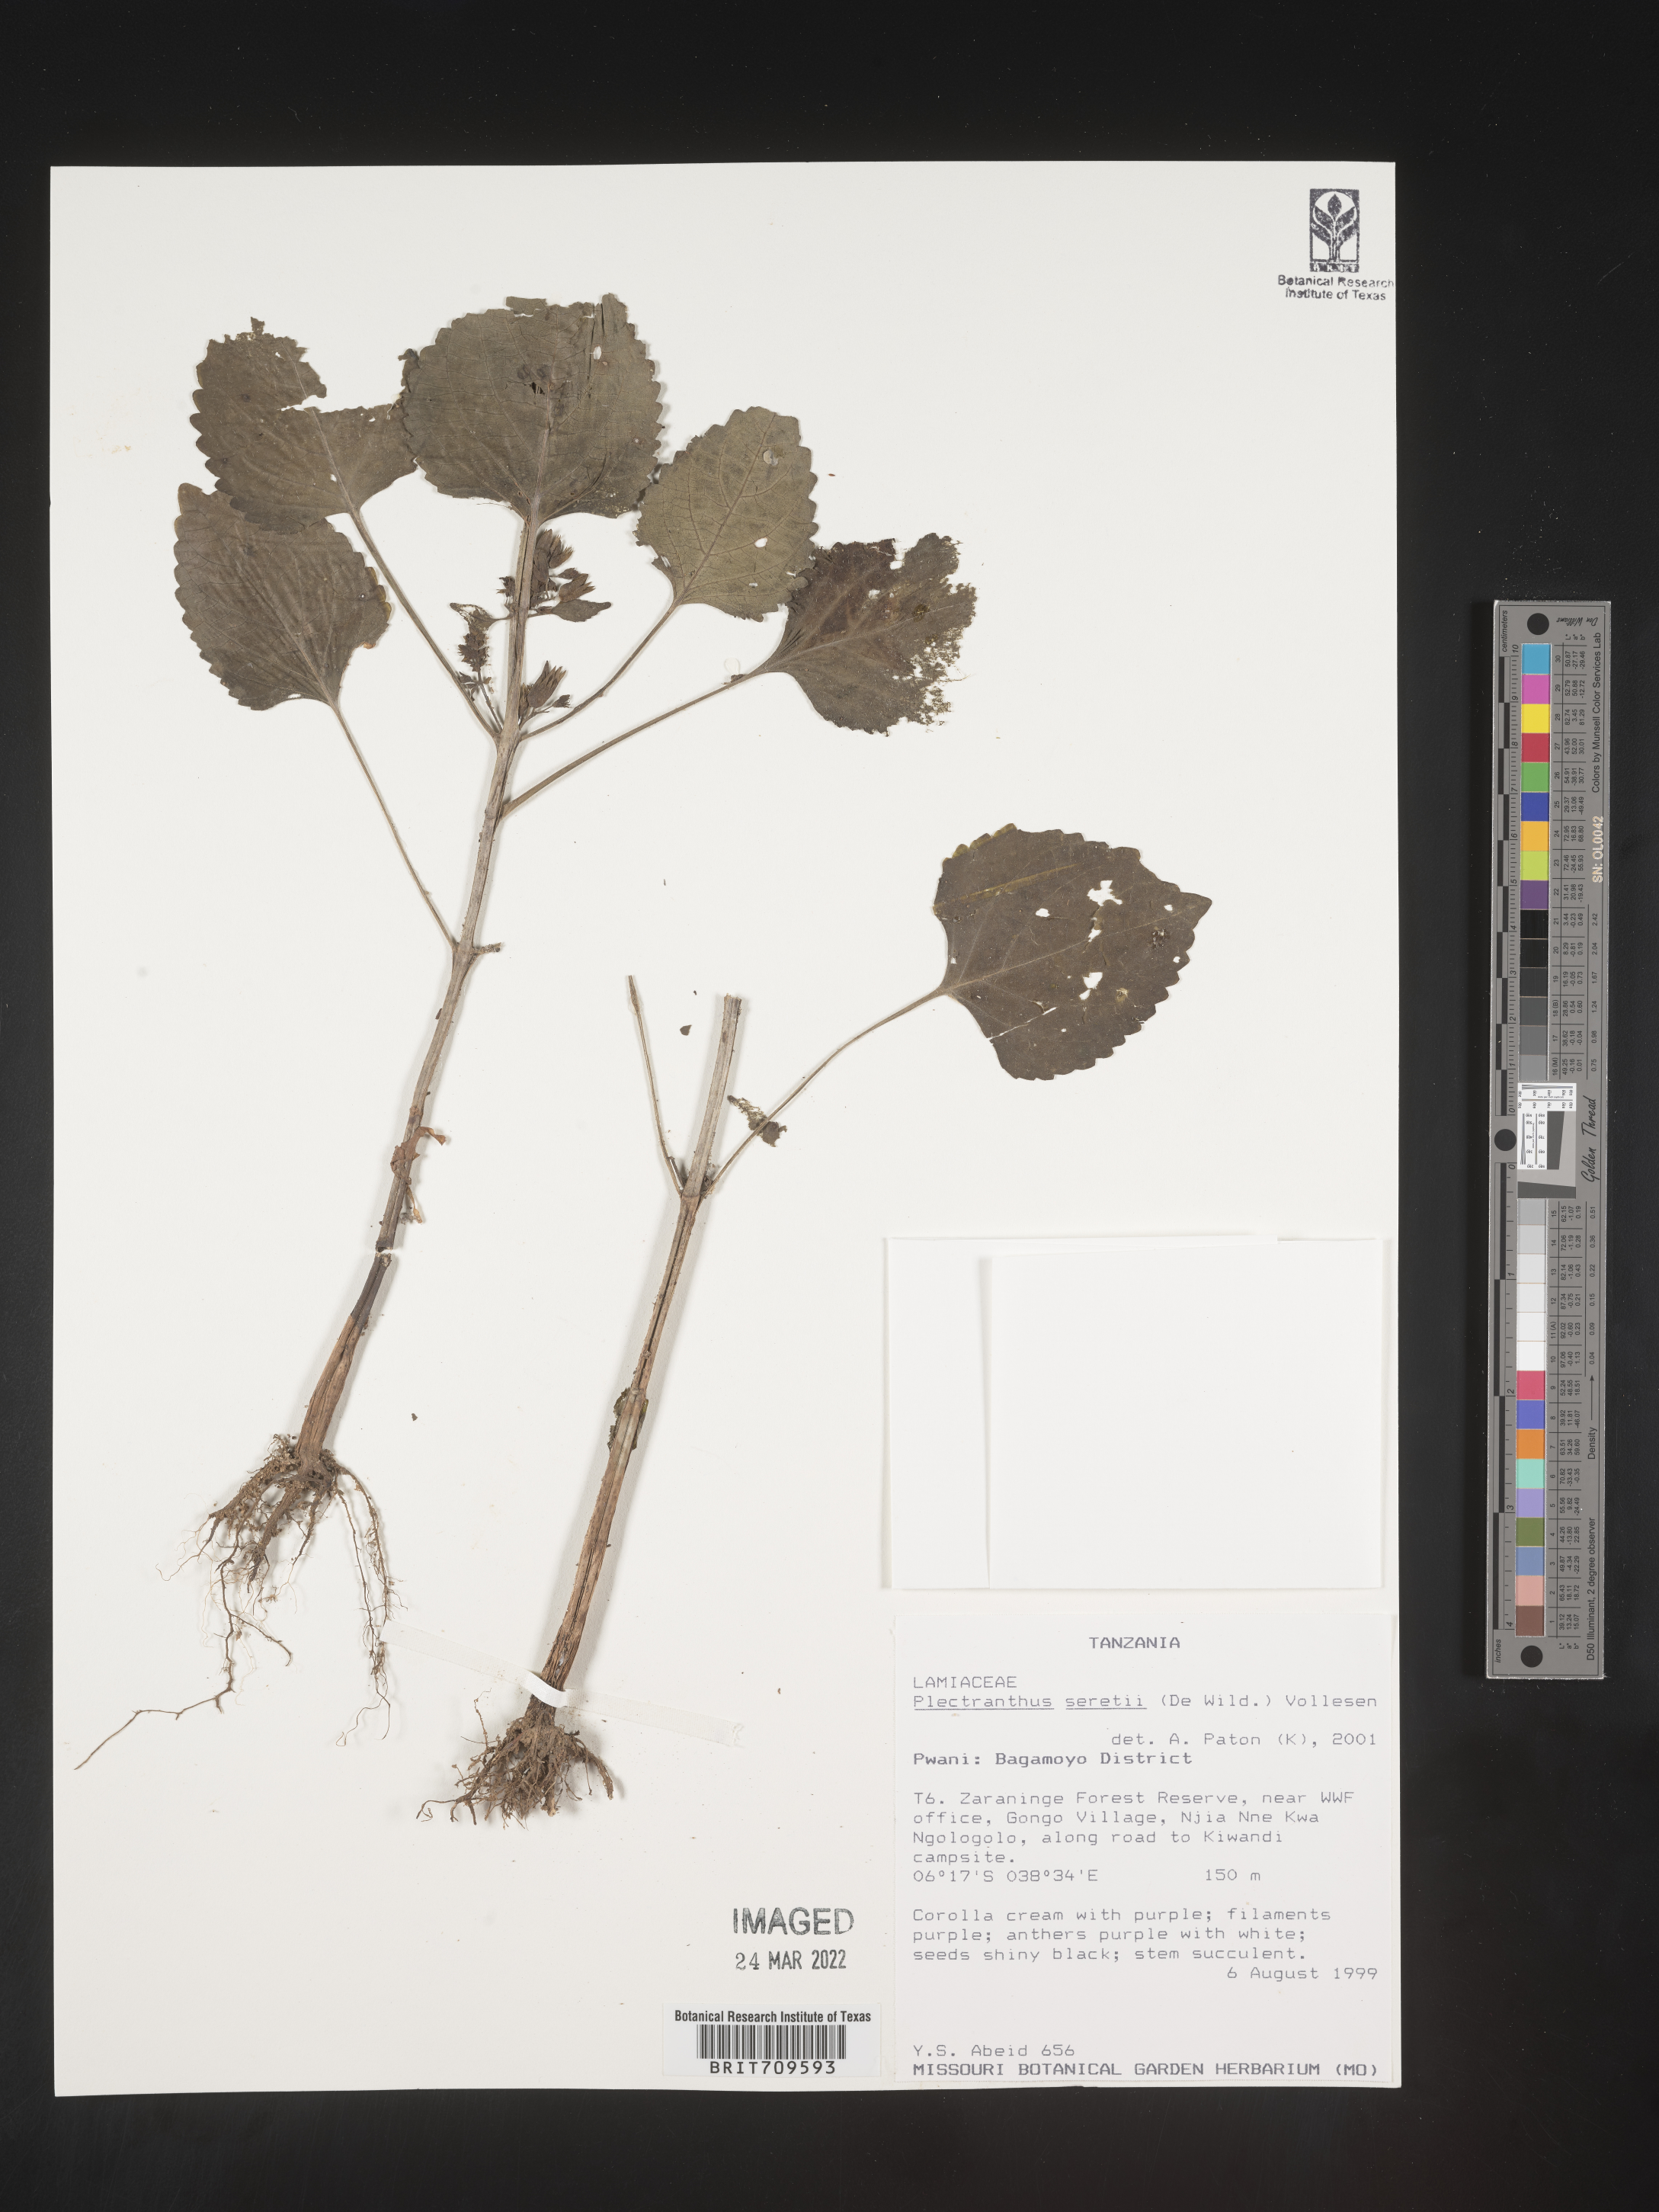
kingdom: Plantae
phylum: Tracheophyta
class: Magnoliopsida
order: Lamiales
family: Lamiaceae
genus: Plectranthus
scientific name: Plectranthus
